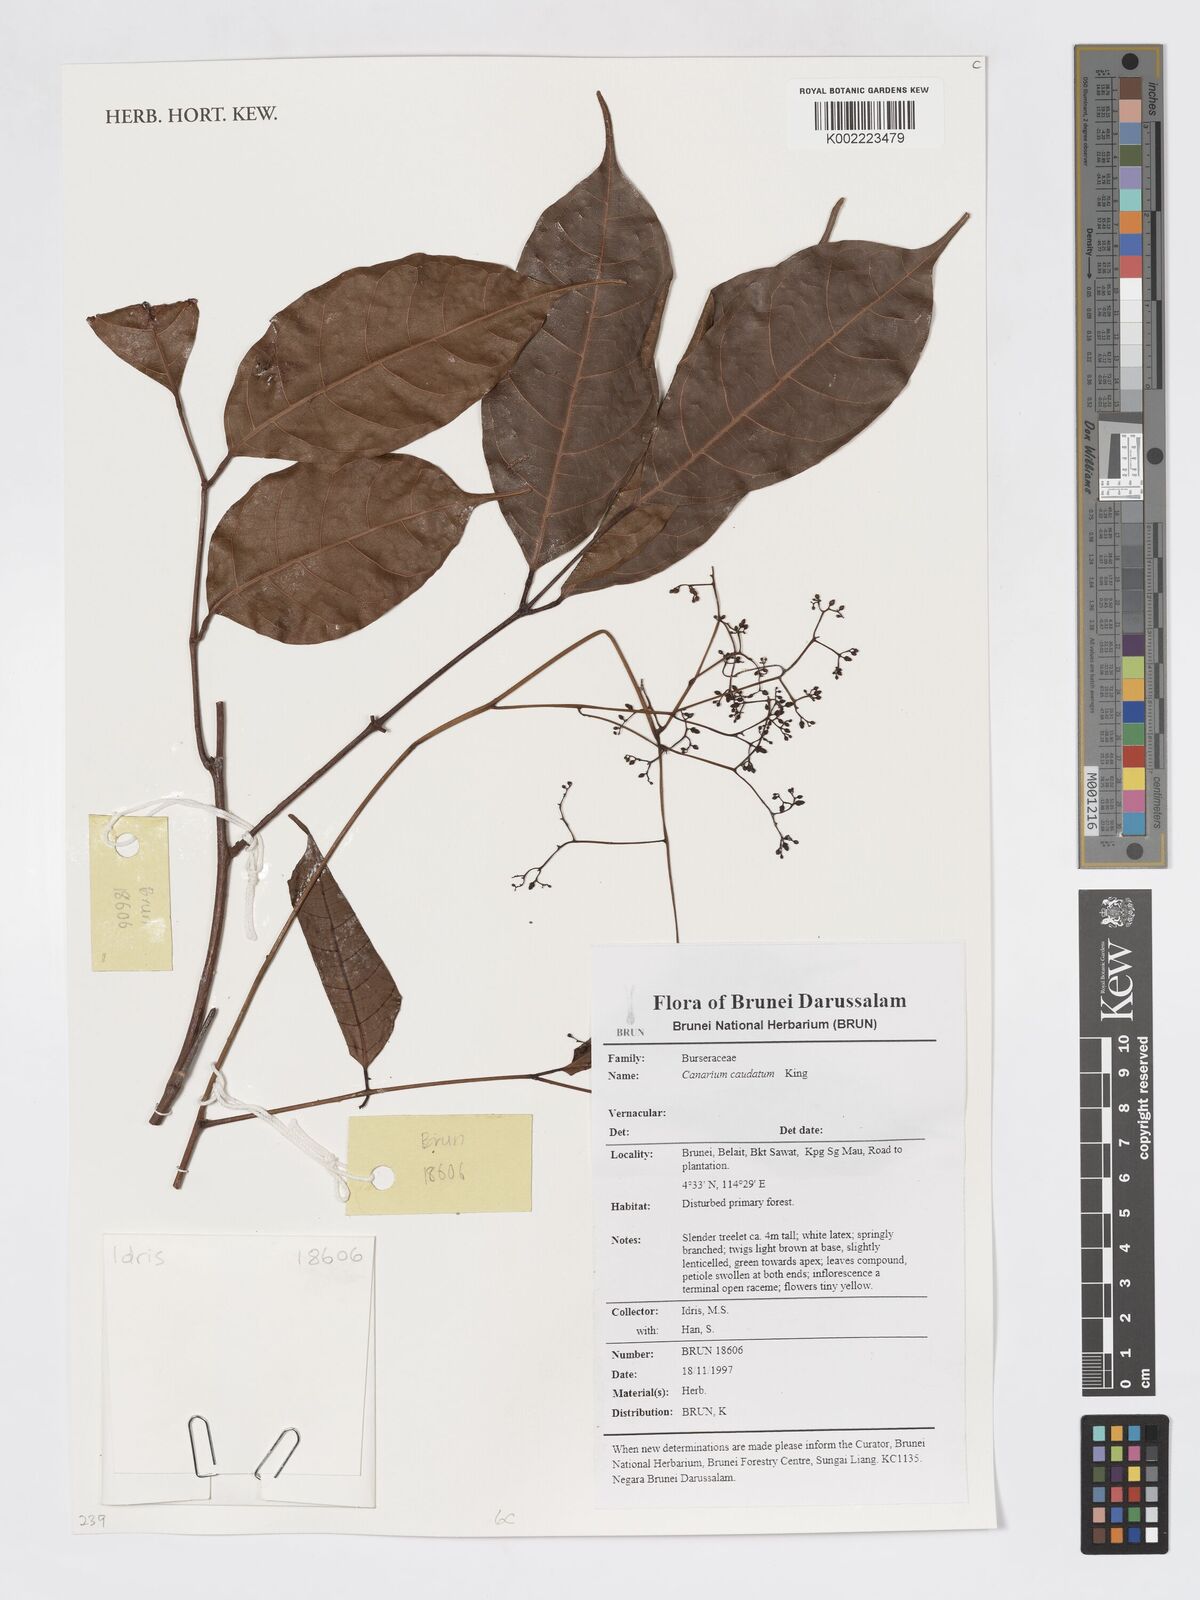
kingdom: Plantae
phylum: Tracheophyta
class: Magnoliopsida
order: Sapindales
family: Burseraceae
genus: Canarium
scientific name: Canarium caudatum
